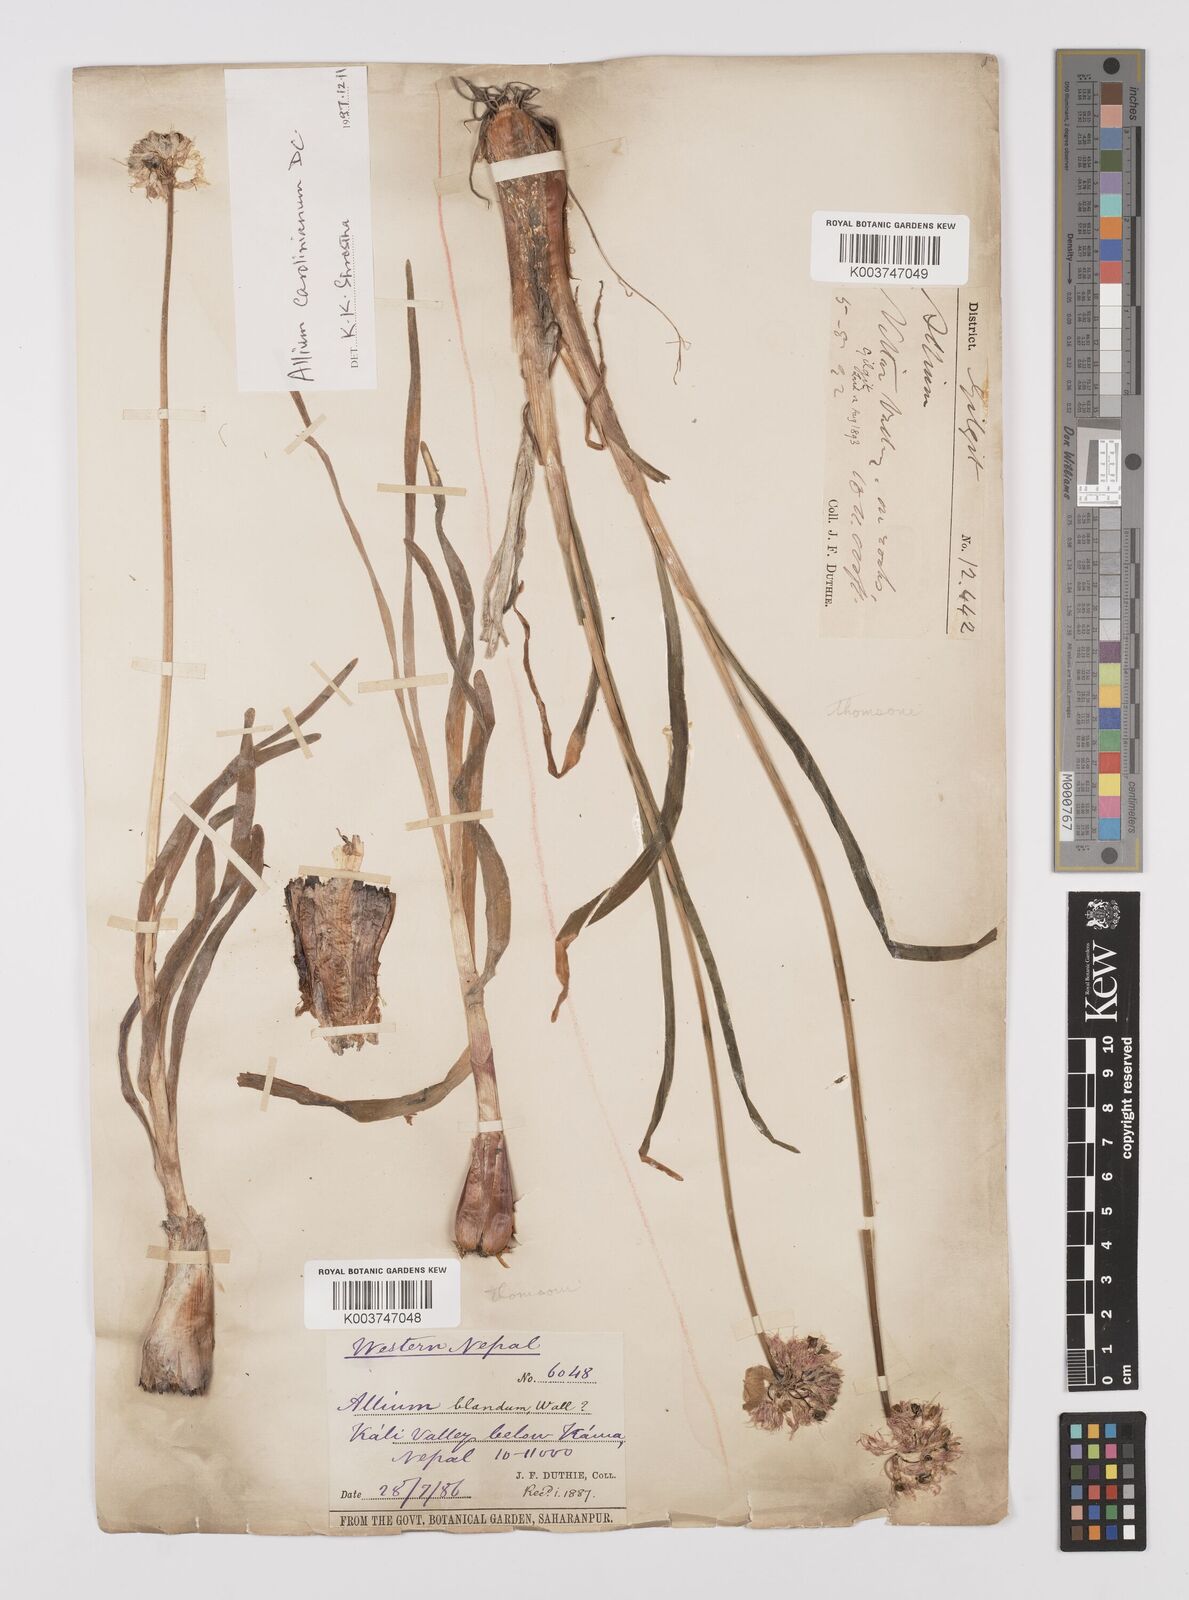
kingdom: Plantae
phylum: Tracheophyta
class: Liliopsida
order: Asparagales
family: Amaryllidaceae
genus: Allium
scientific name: Allium blandum
